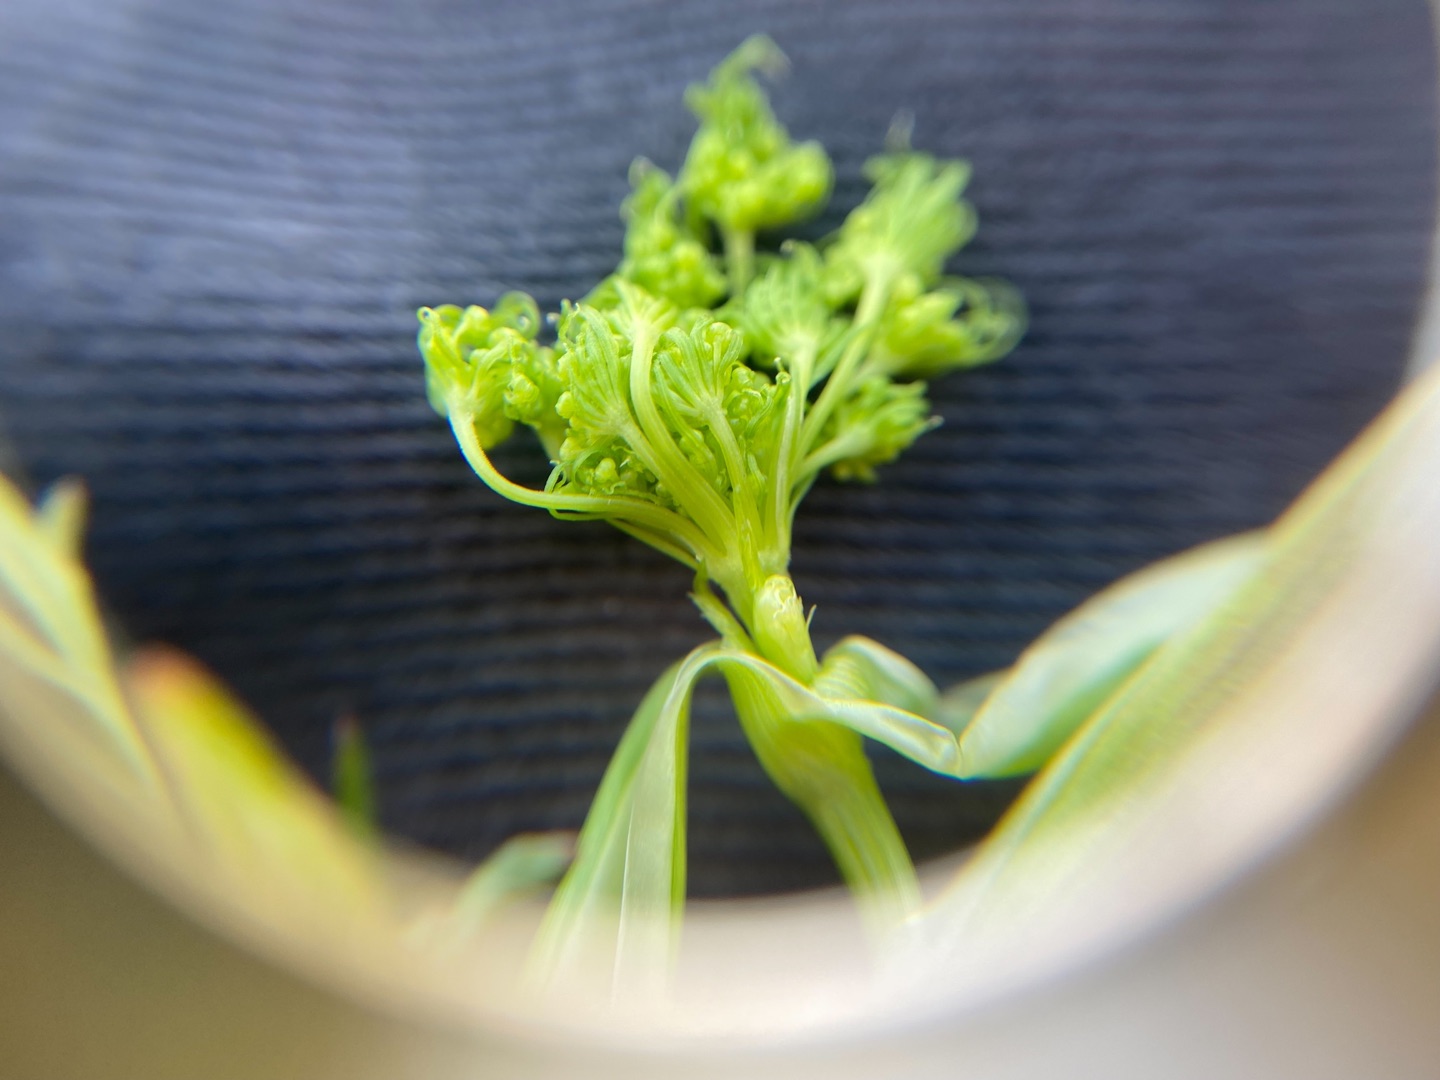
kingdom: Plantae
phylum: Tracheophyta
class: Magnoliopsida
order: Apiales
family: Apiaceae
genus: Kadenia
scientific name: Kadenia dubia
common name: Brændeskærm
